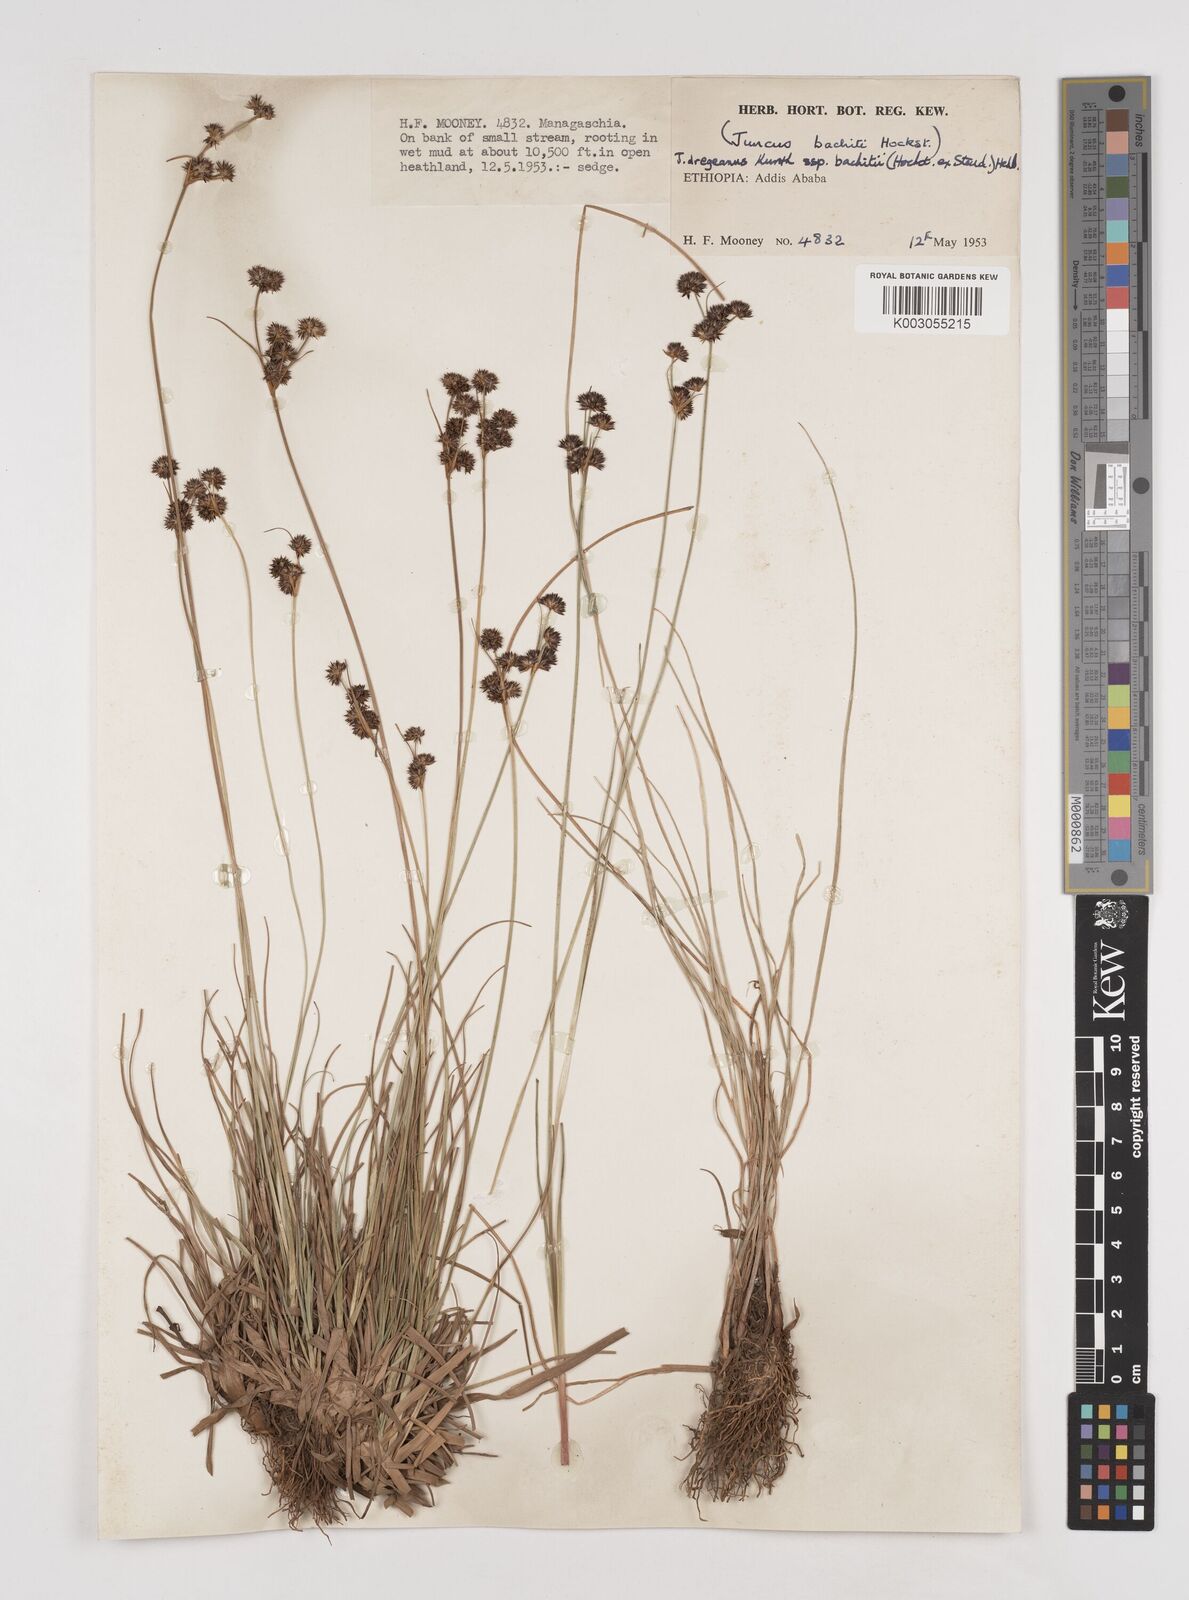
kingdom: Plantae
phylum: Tracheophyta
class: Liliopsida
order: Poales
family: Juncaceae
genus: Juncus
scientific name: Juncus dregeanus
